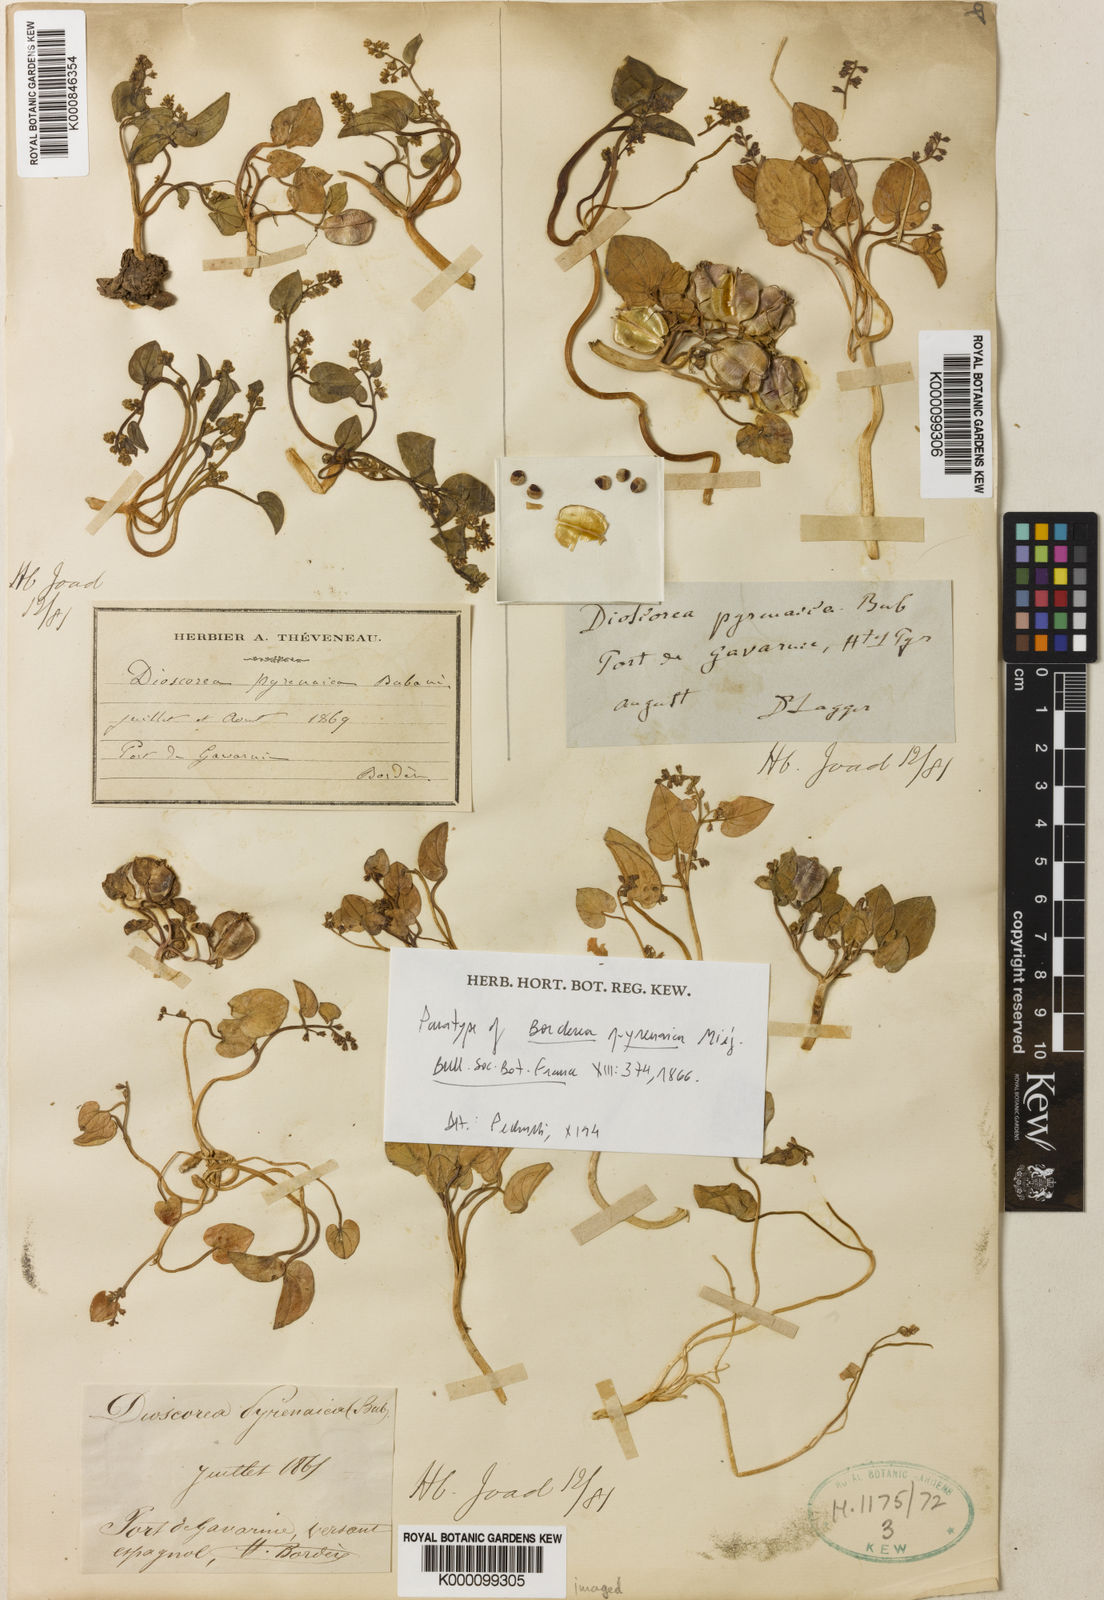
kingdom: Plantae
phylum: Tracheophyta
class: Liliopsida
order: Dioscoreales
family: Dioscoreaceae
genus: Dioscorea
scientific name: Dioscorea
